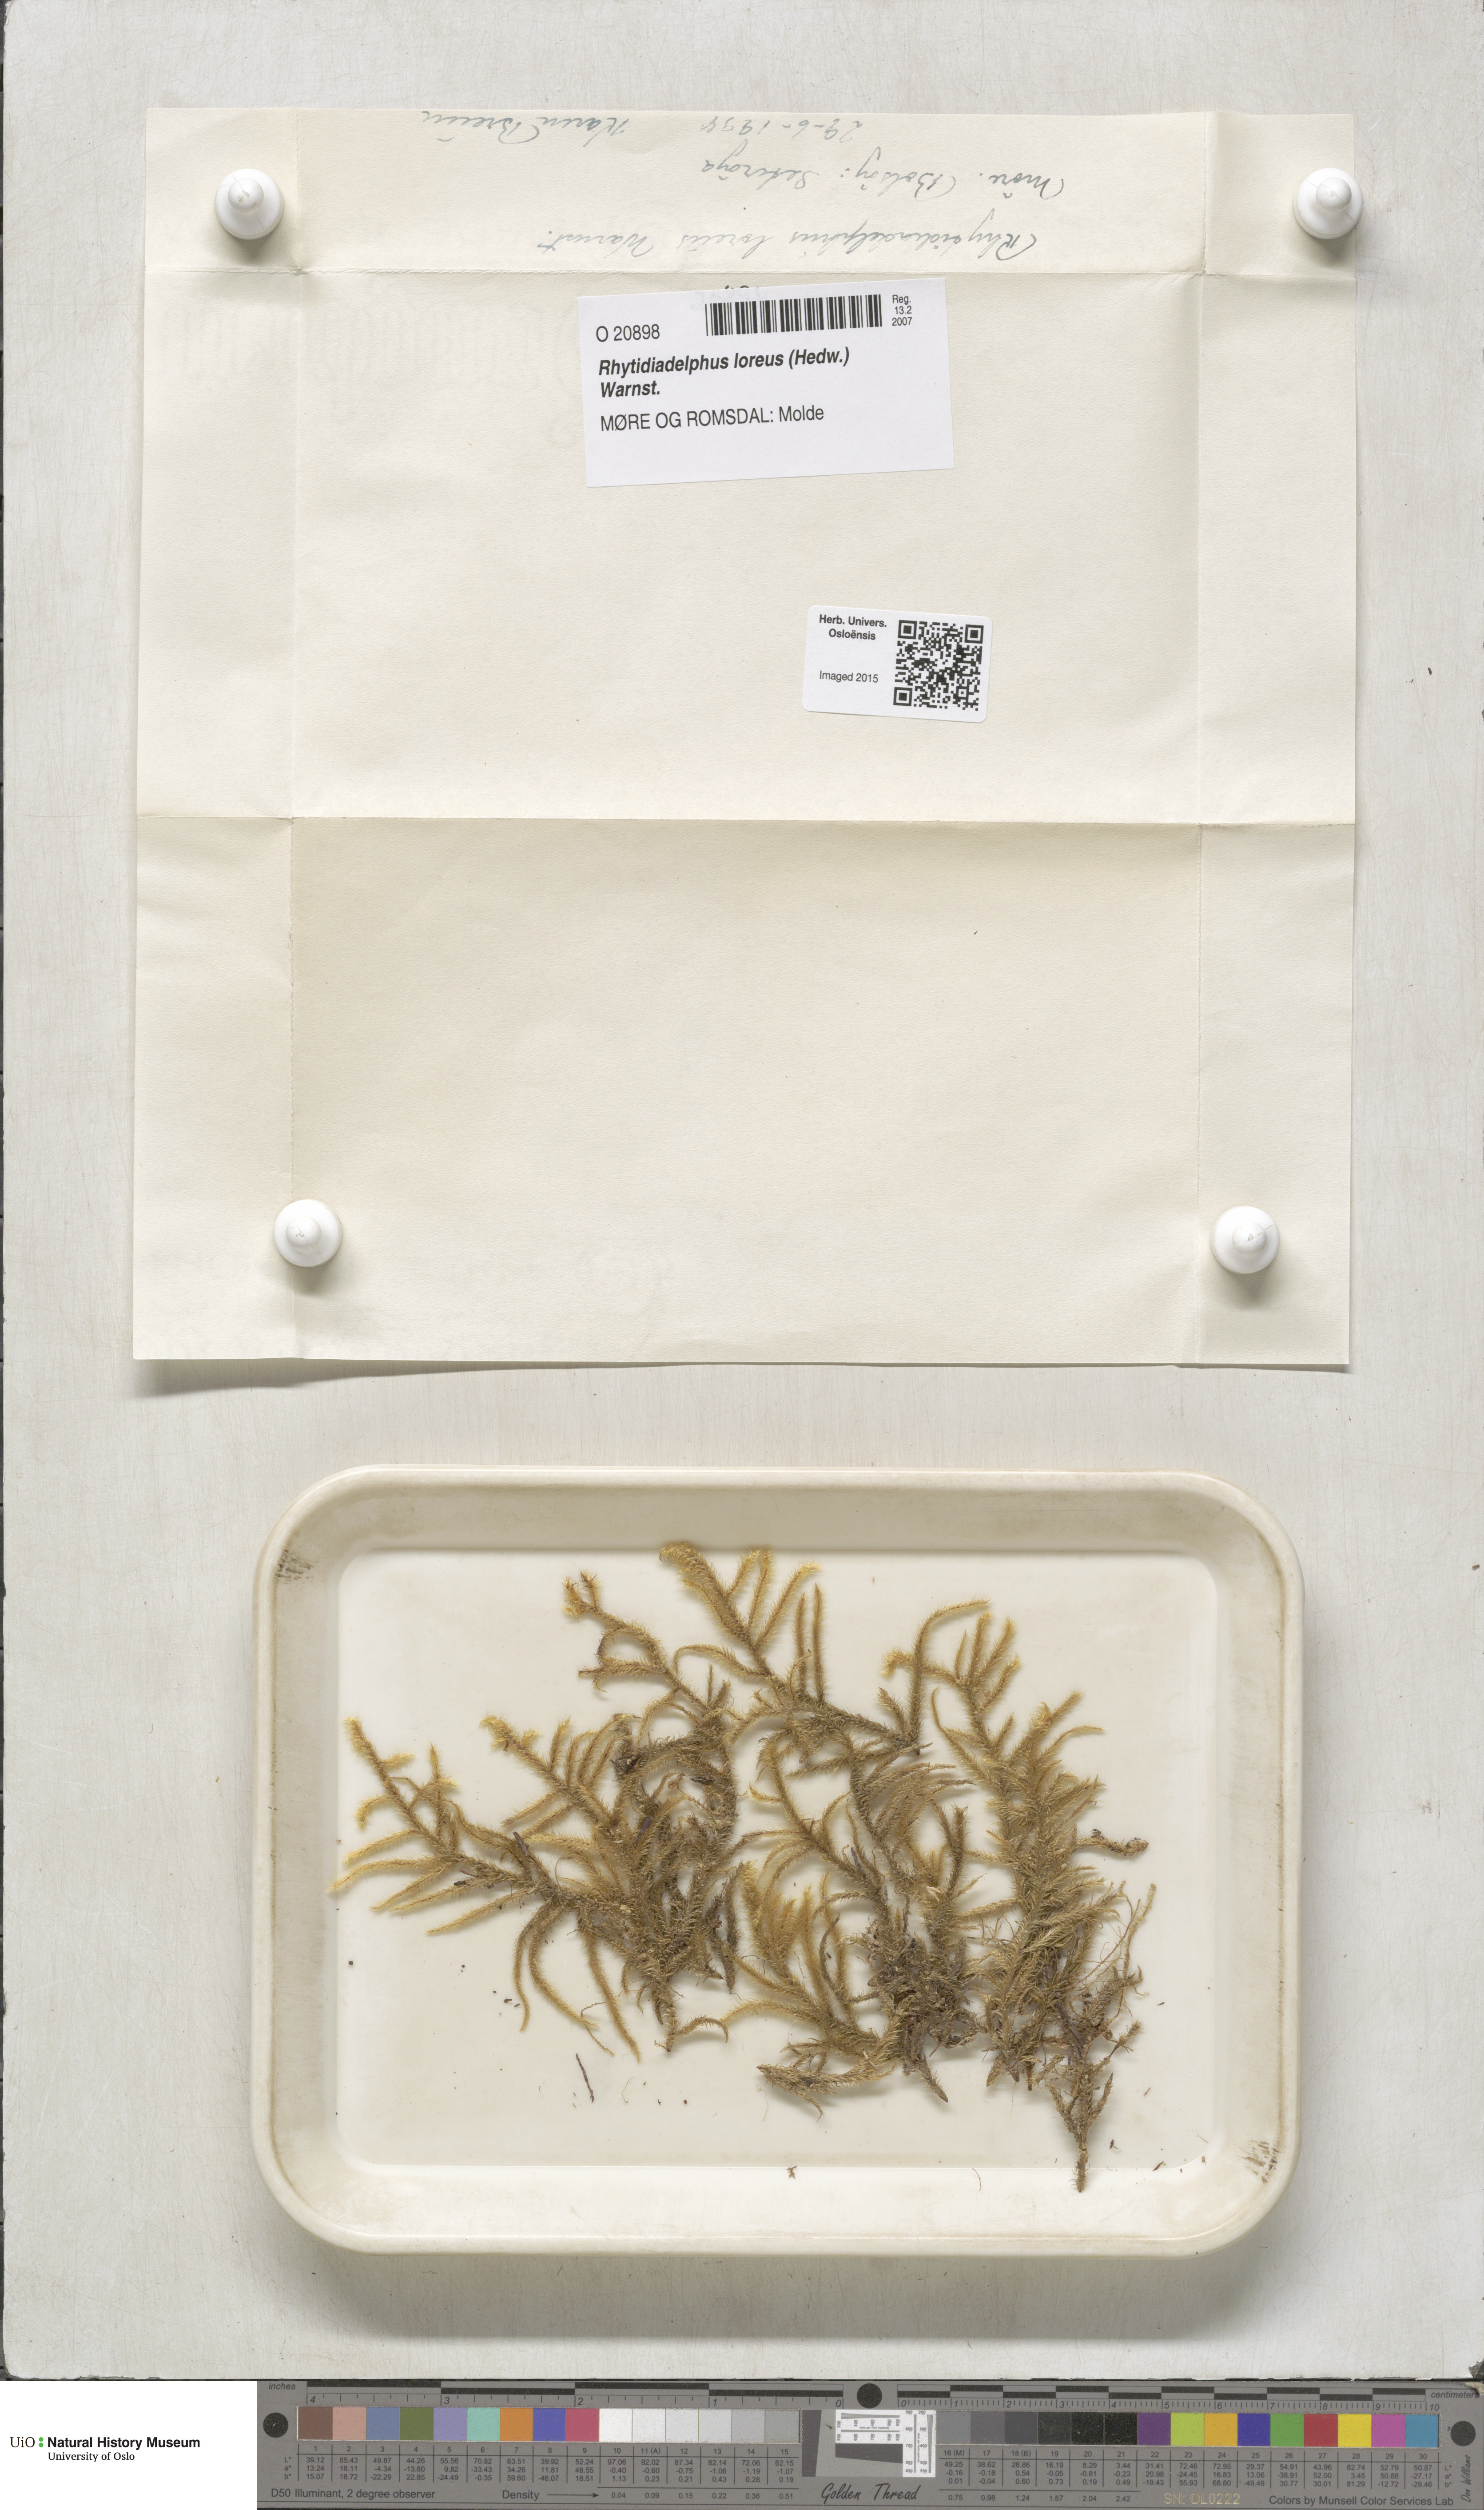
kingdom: Plantae
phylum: Bryophyta
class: Bryopsida
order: Hypnales
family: Hylocomiaceae
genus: Rhytidiadelphus
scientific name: Rhytidiadelphus loreus
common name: Lanky moss
